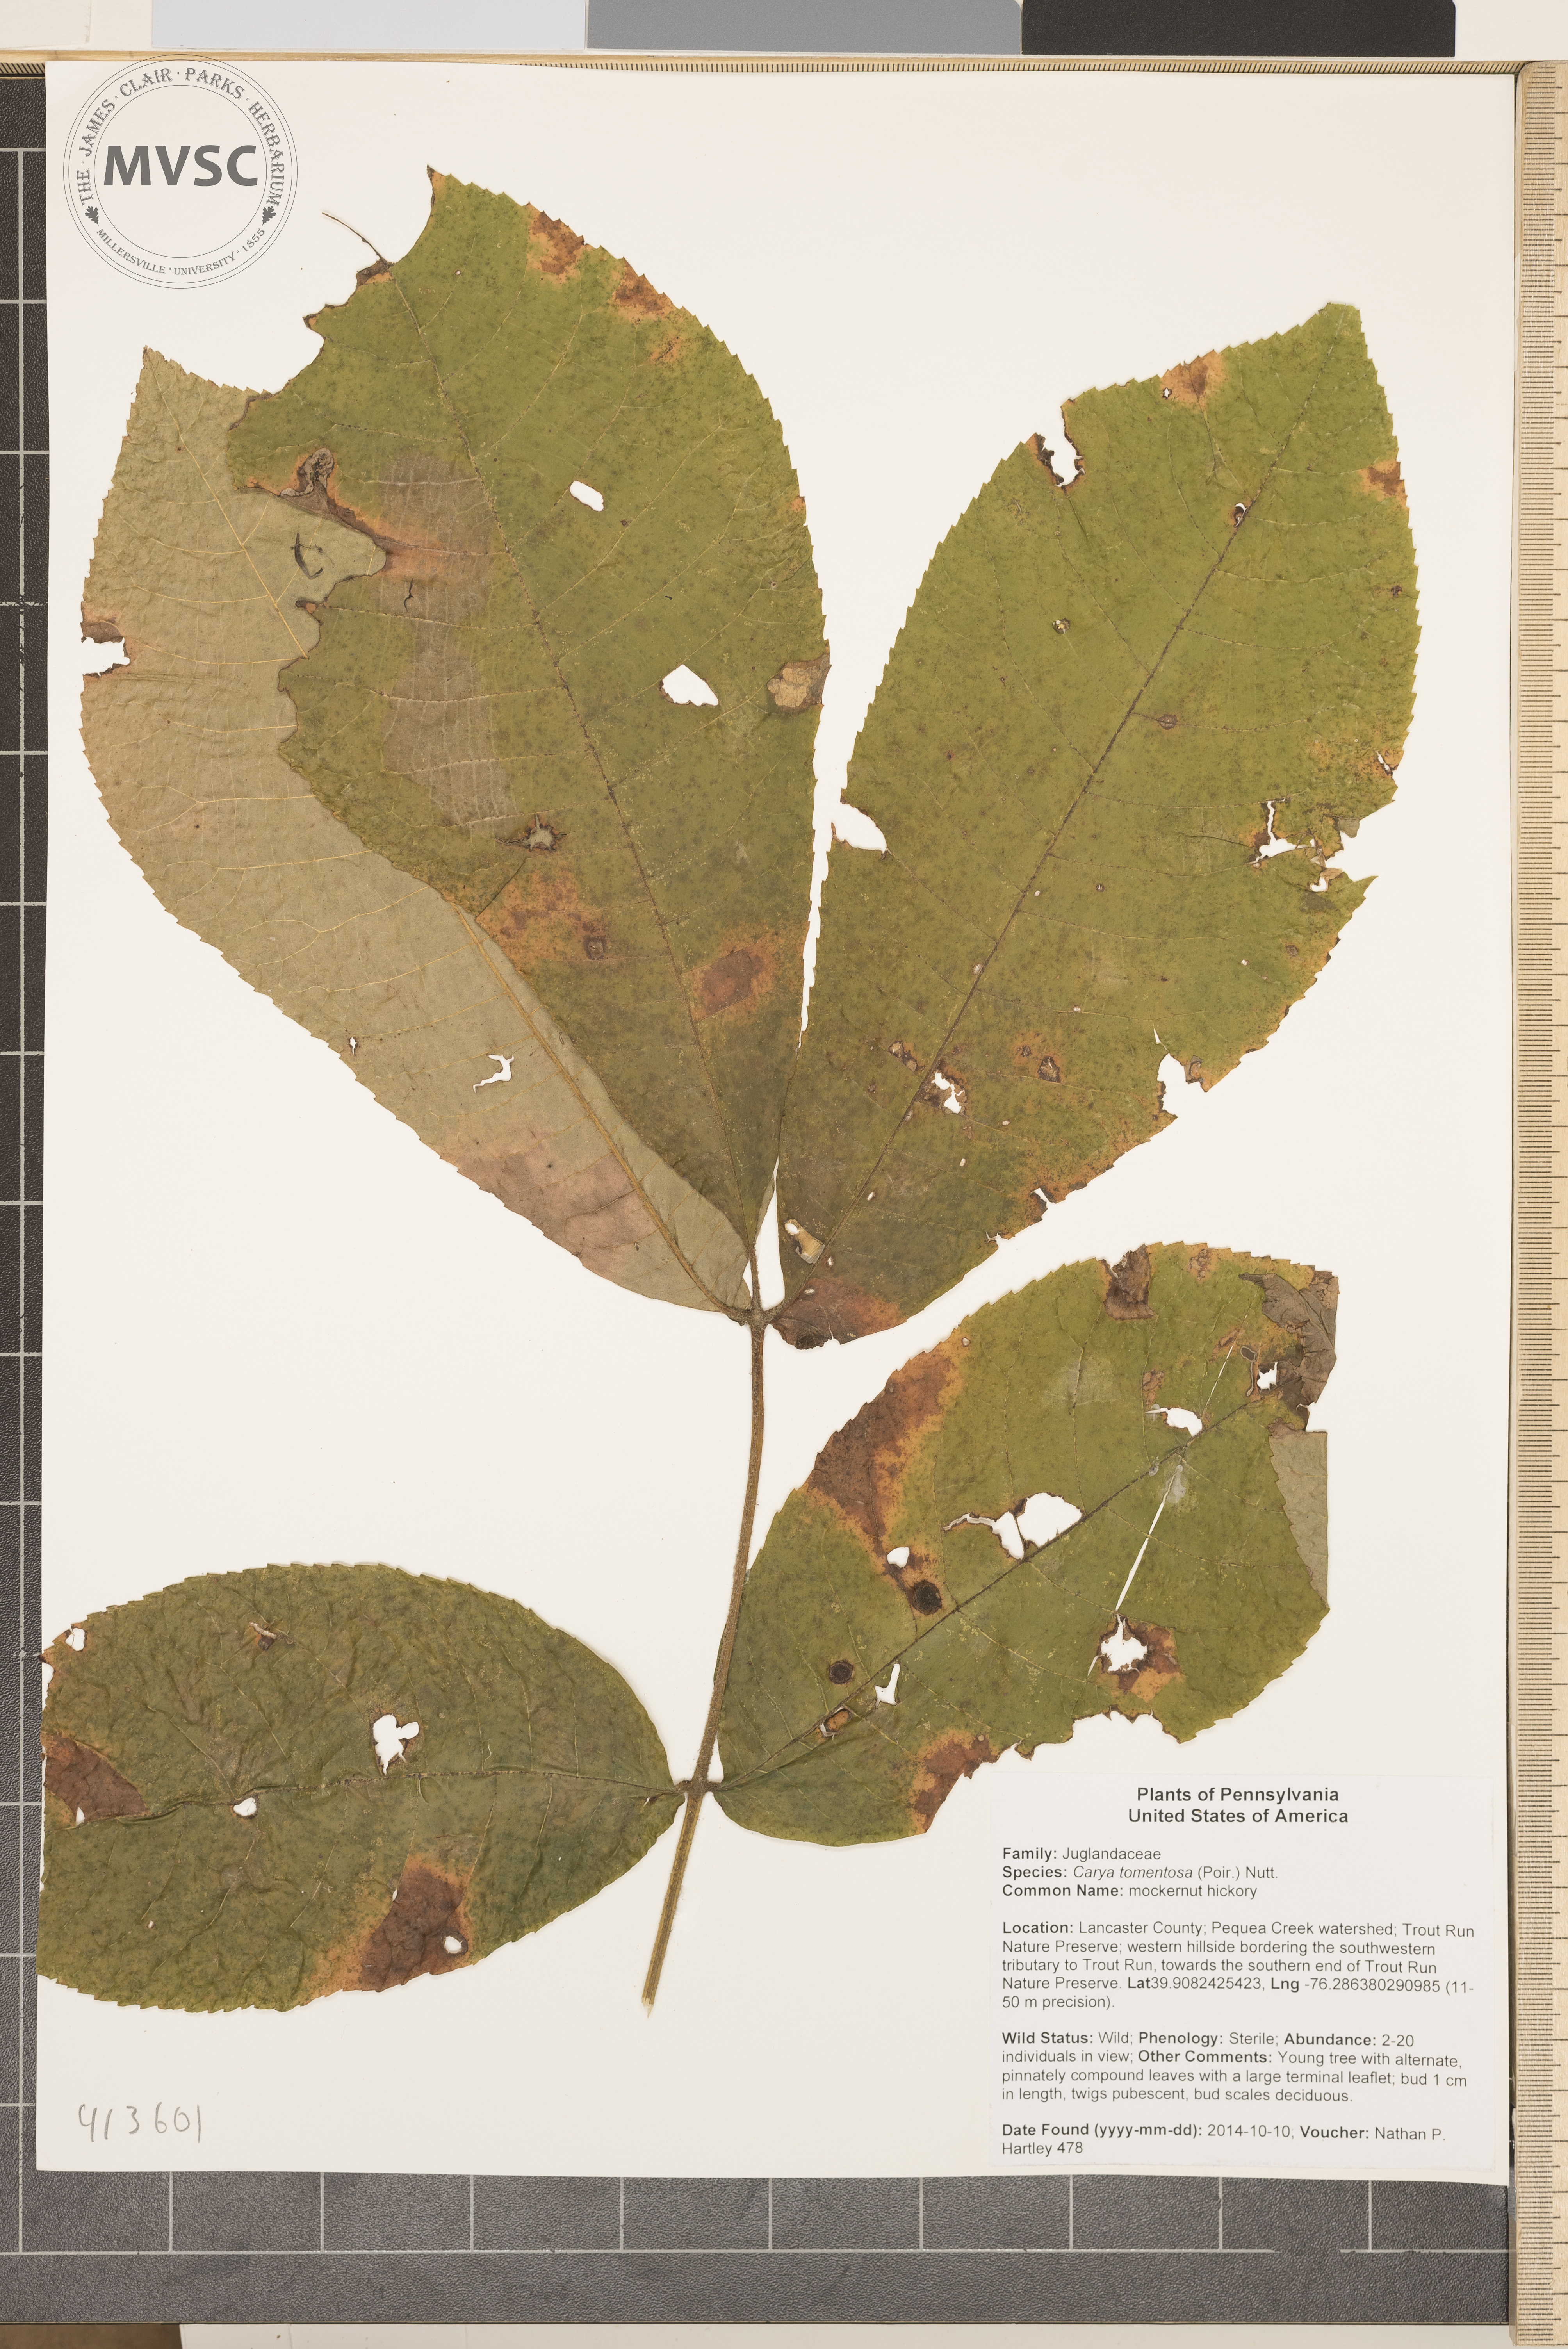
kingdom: Plantae
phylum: Tracheophyta
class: Magnoliopsida
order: Fagales
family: Juglandaceae
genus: Carya
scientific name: Carya alba
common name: mockernut hickory
